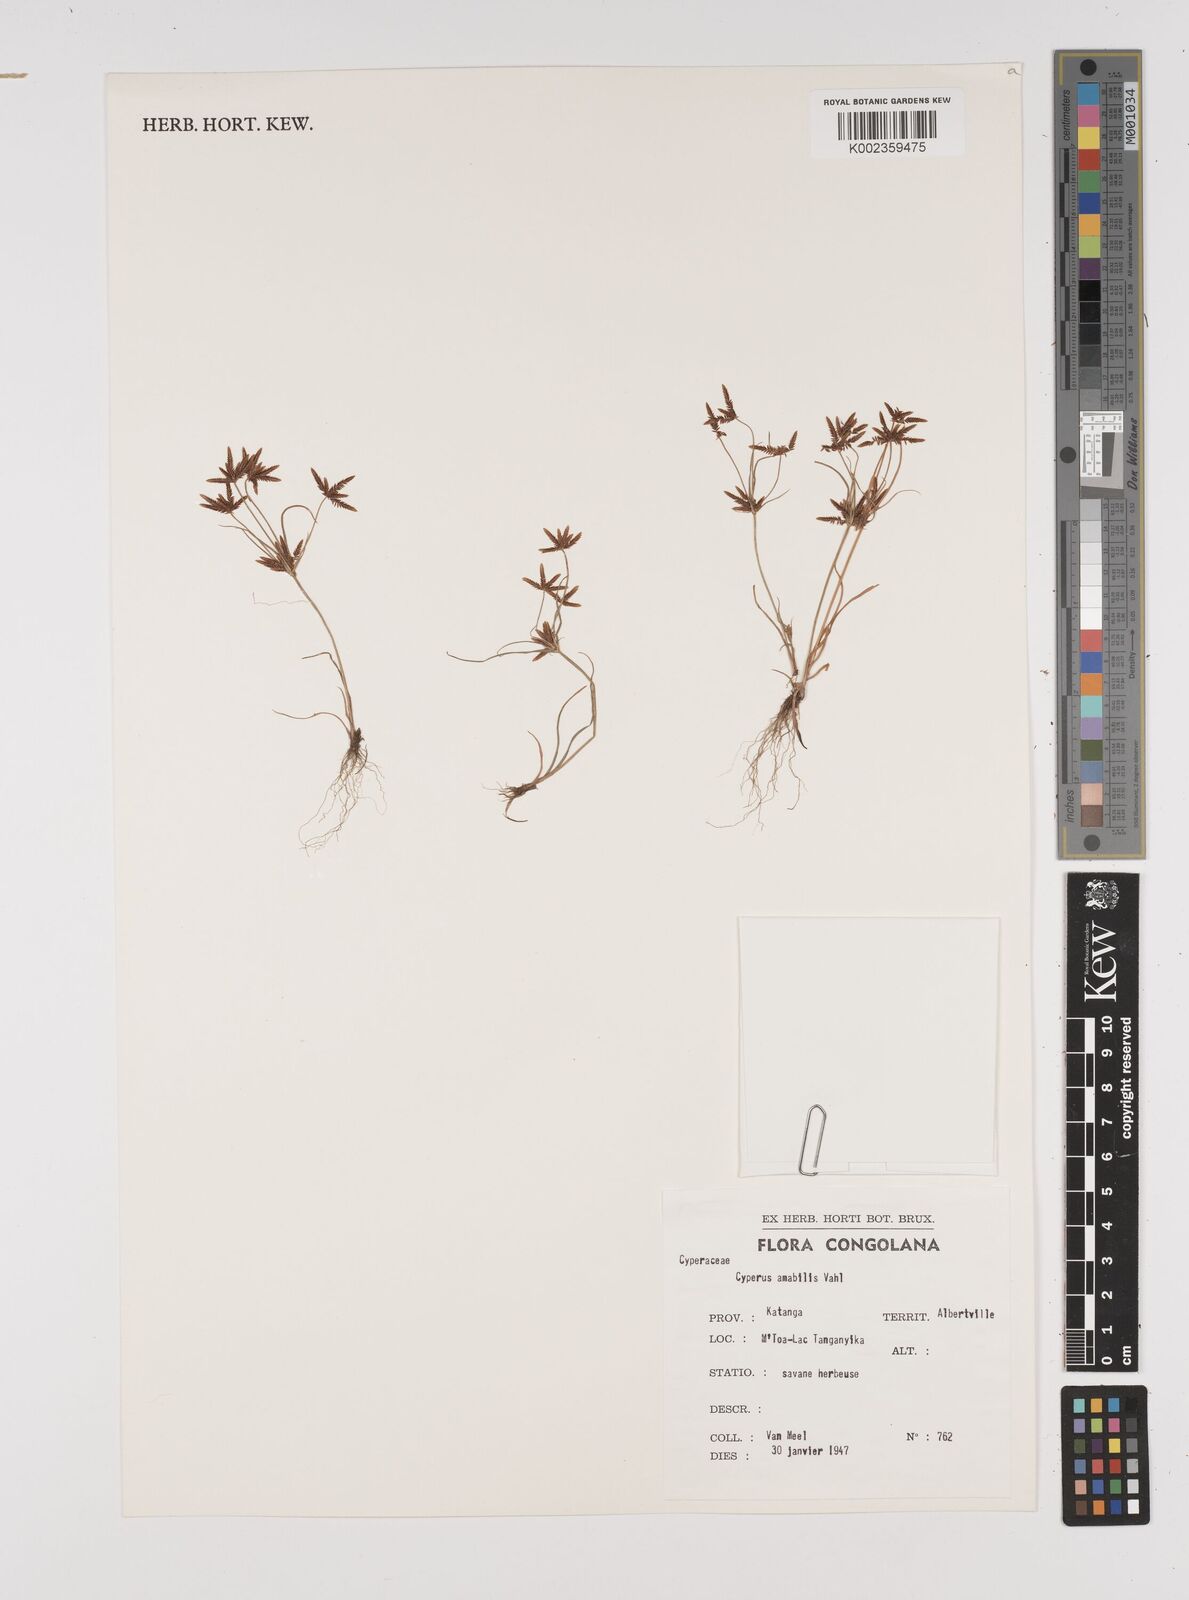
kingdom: Plantae
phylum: Tracheophyta
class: Liliopsida
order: Poales
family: Cyperaceae
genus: Cyperus
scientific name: Cyperus amabilis
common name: Foothill flat sedge
